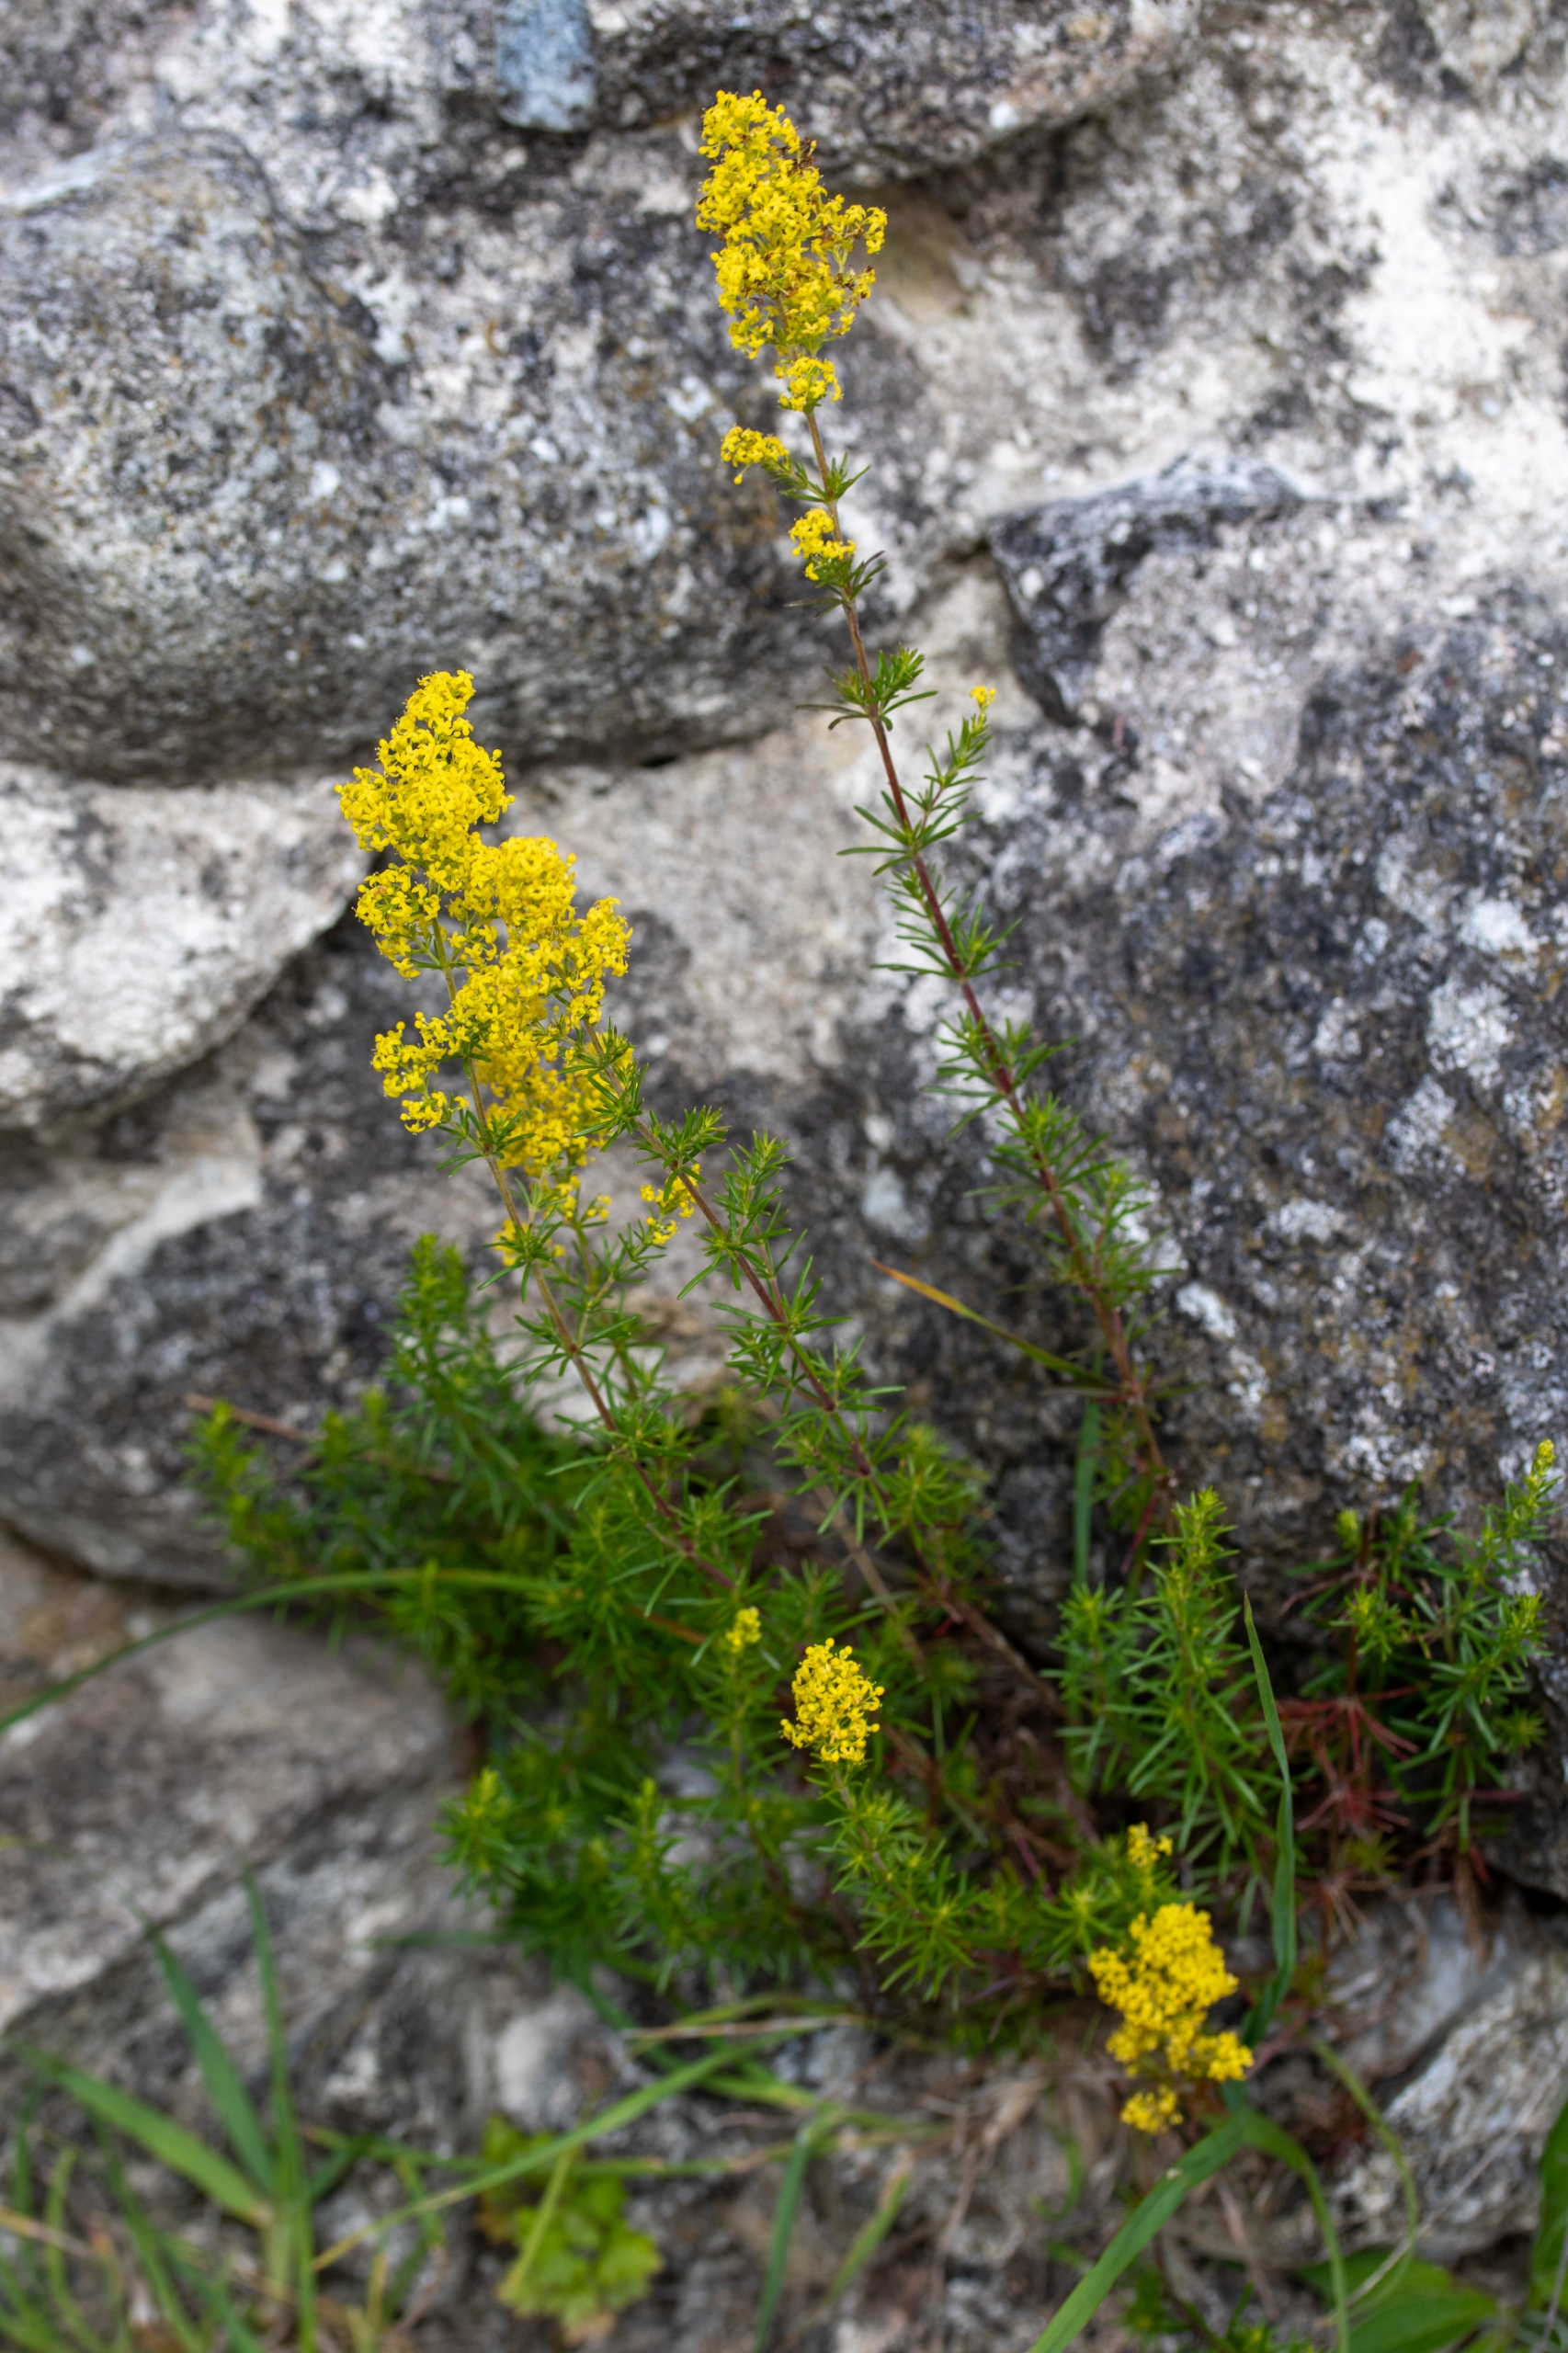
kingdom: Plantae
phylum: Tracheophyta
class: Magnoliopsida
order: Gentianales
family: Rubiaceae
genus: Galium
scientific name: Galium verum
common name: Gul snerre
